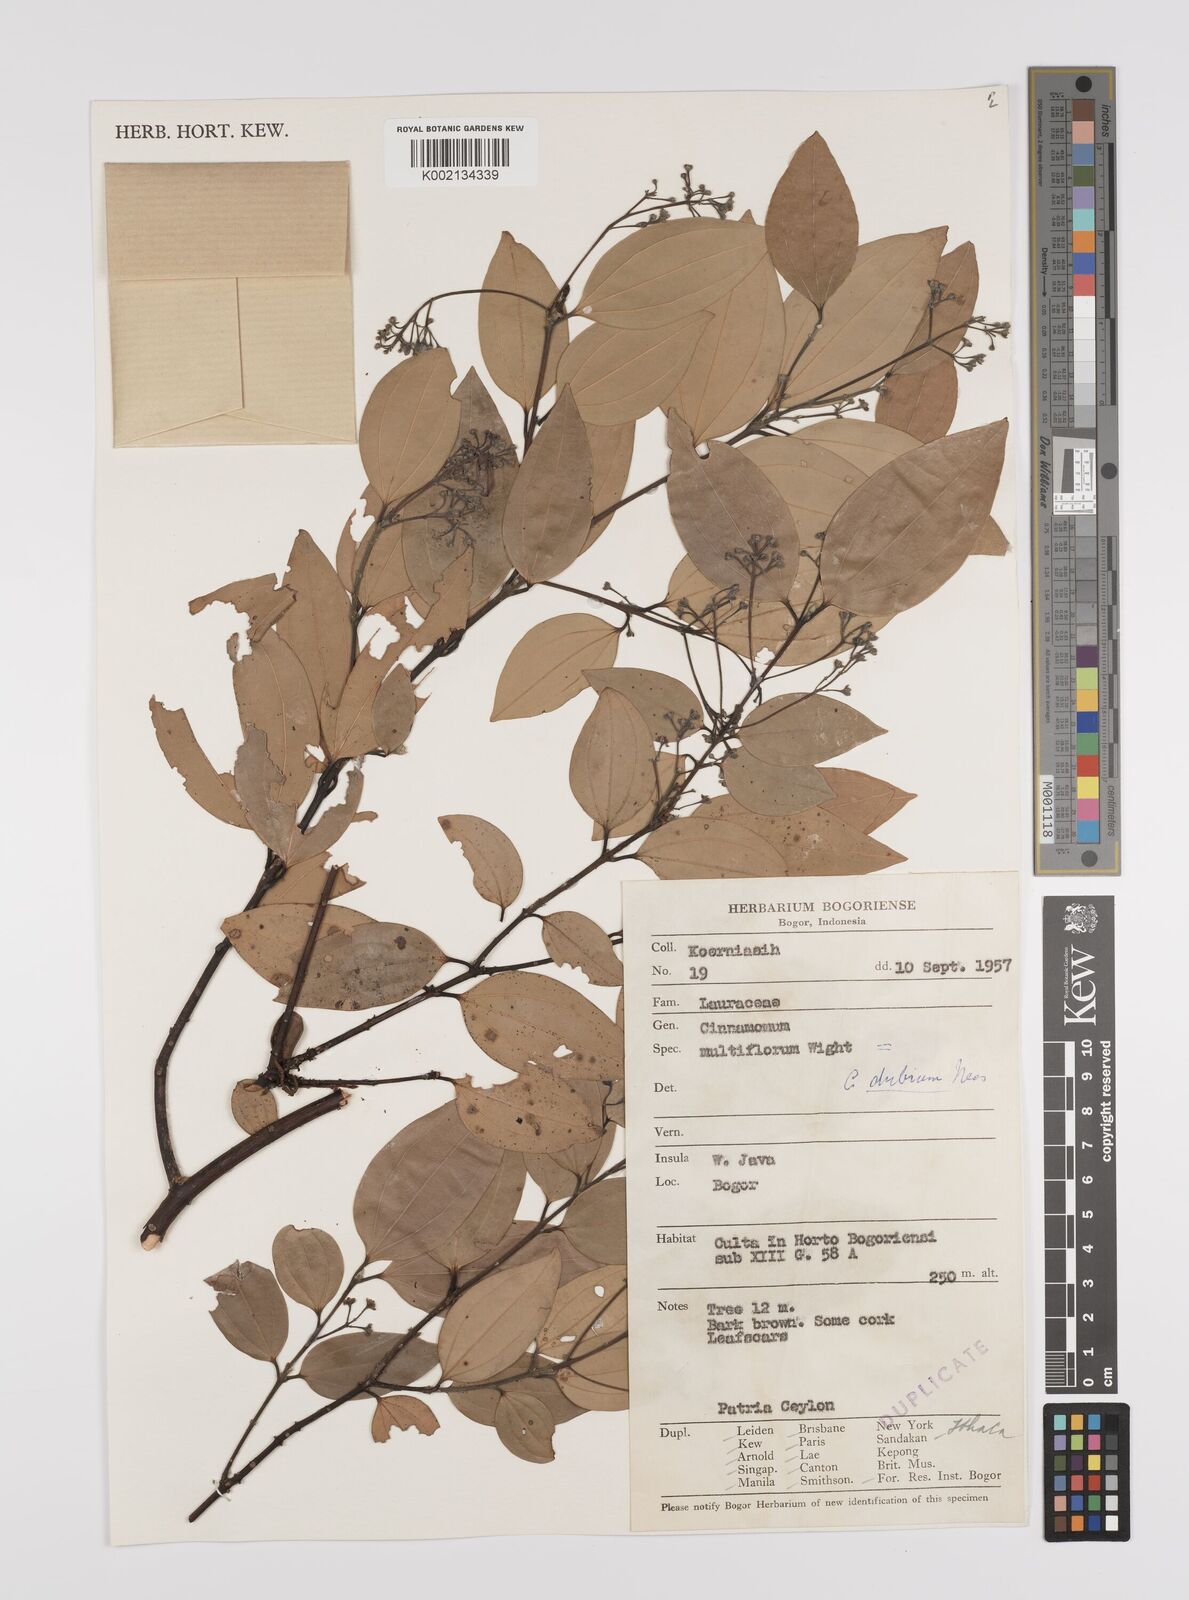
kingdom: Plantae
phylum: Tracheophyta
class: Magnoliopsida
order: Laurales
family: Lauraceae
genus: Cinnamomum
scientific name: Cinnamomum dubium
